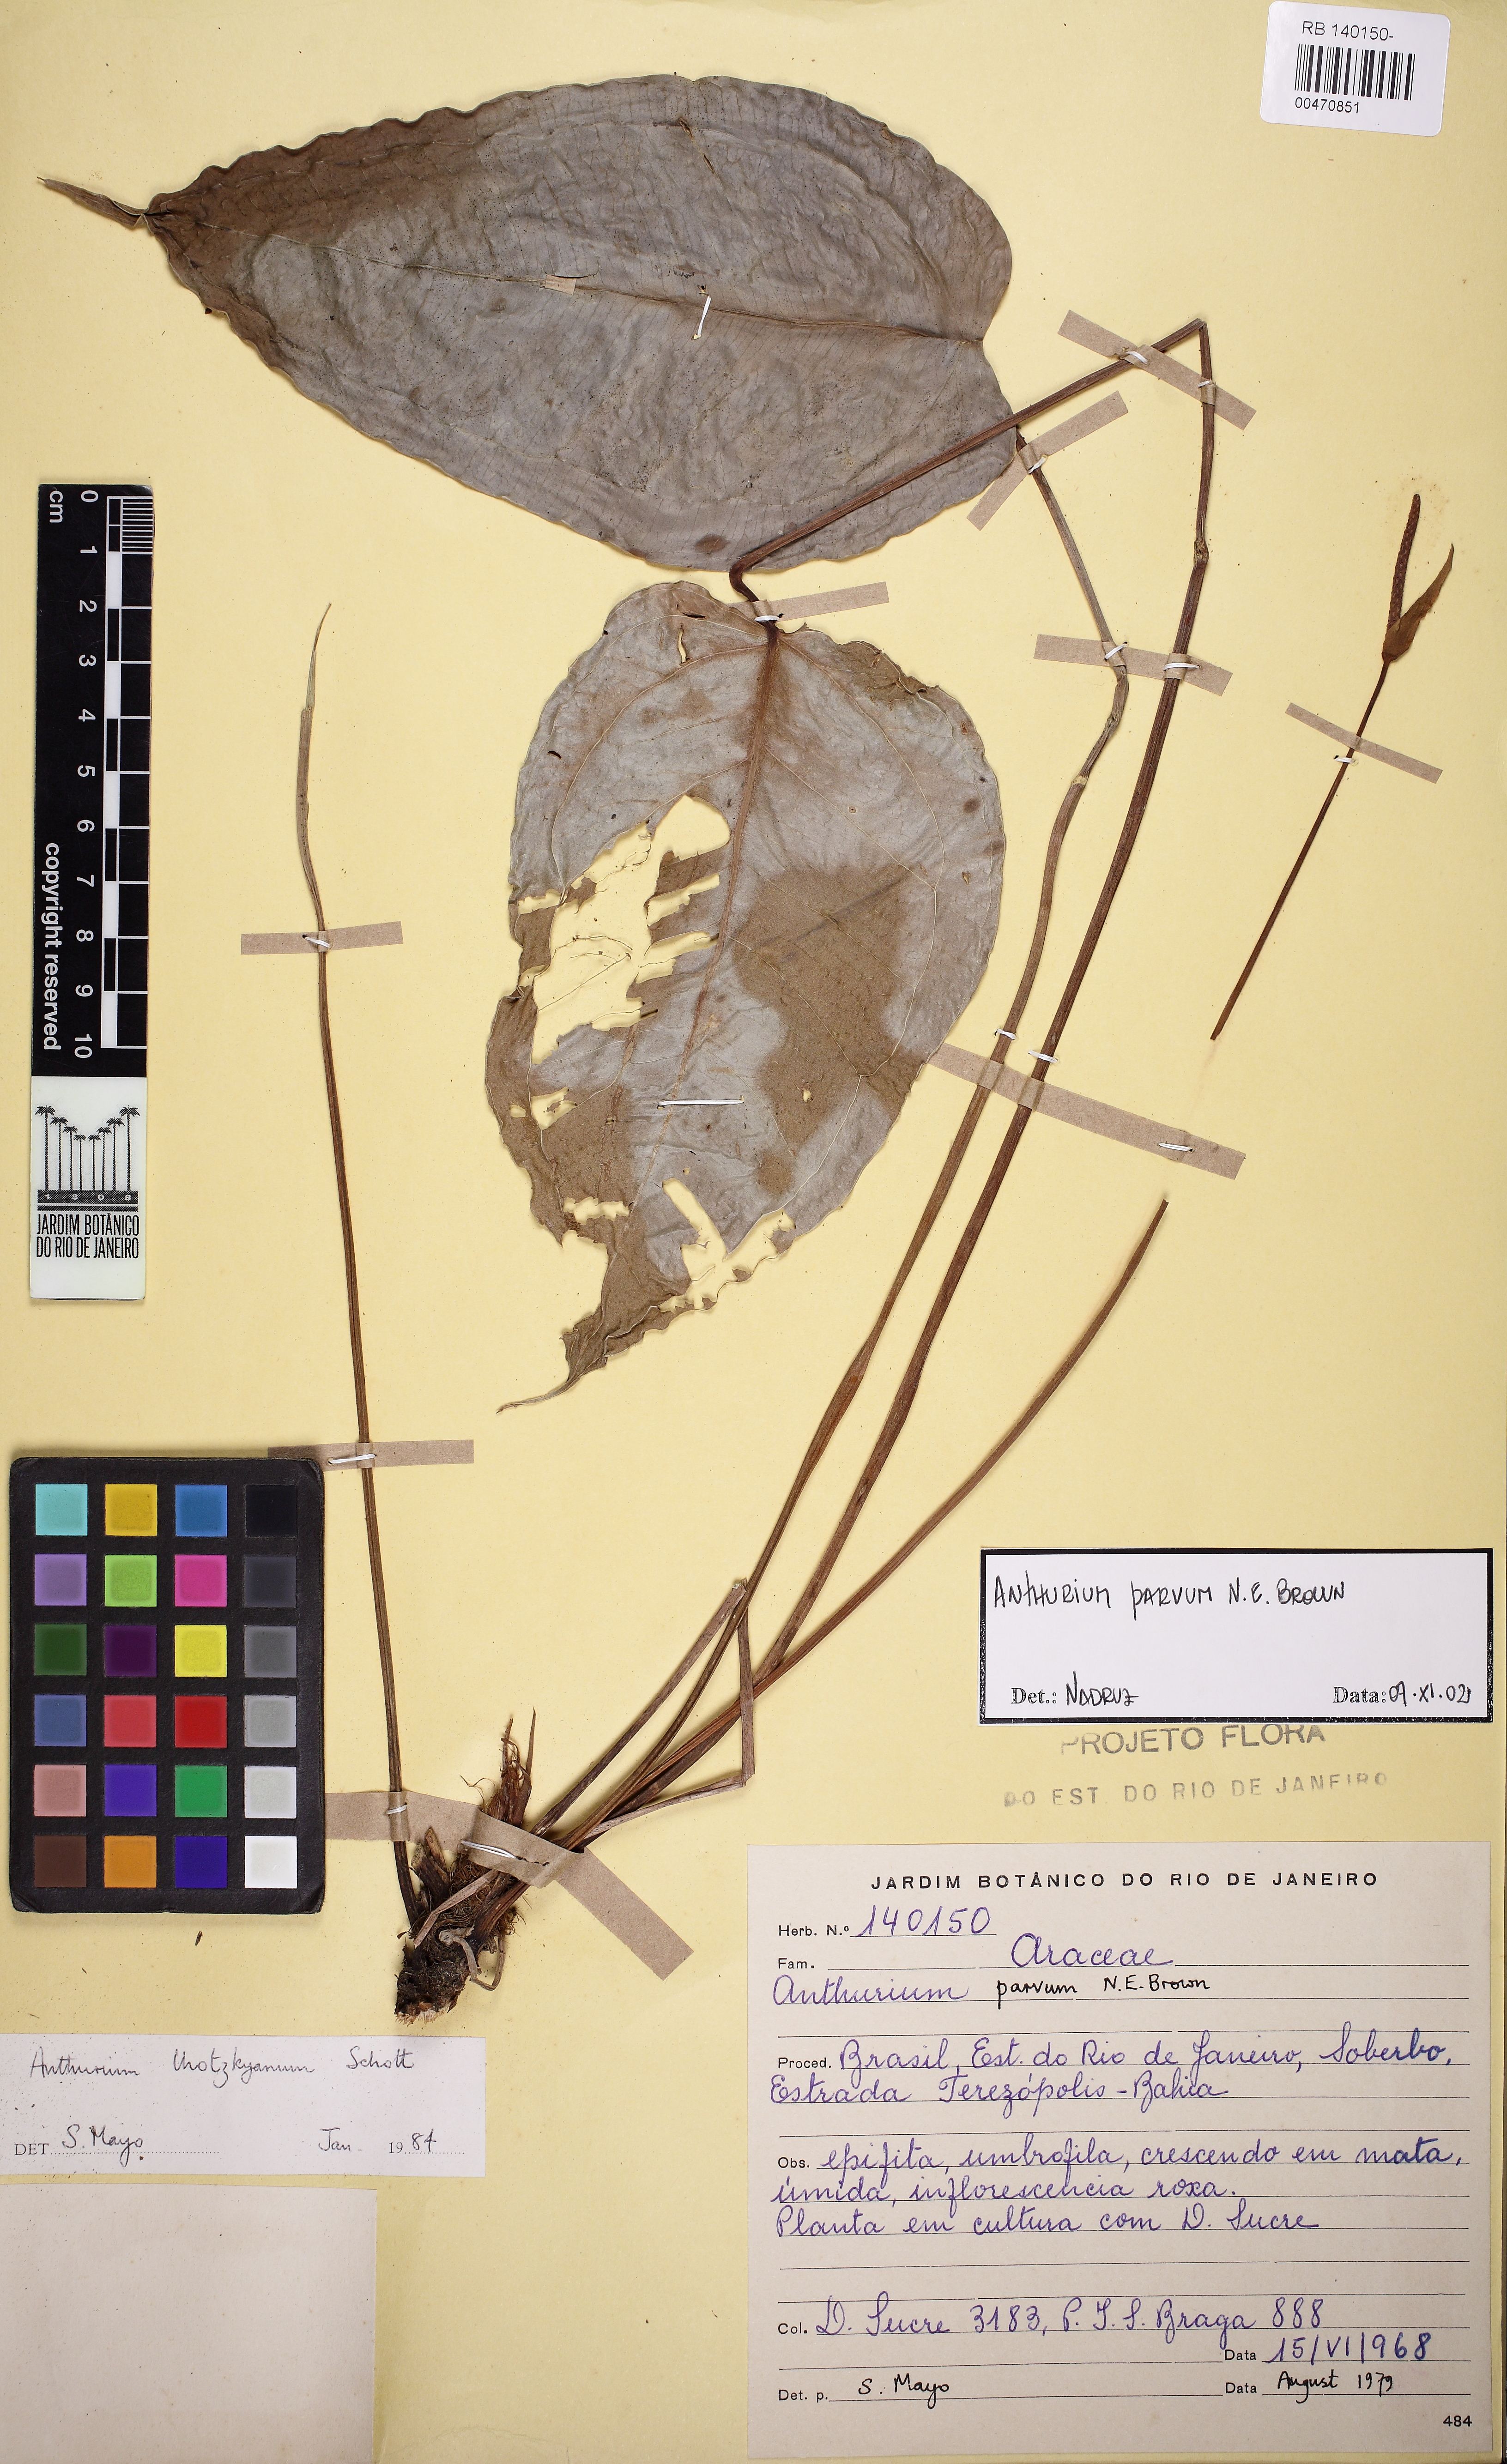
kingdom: Plantae
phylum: Tracheophyta
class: Liliopsida
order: Alismatales
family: Araceae
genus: Anthurium
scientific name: Anthurium parvum
